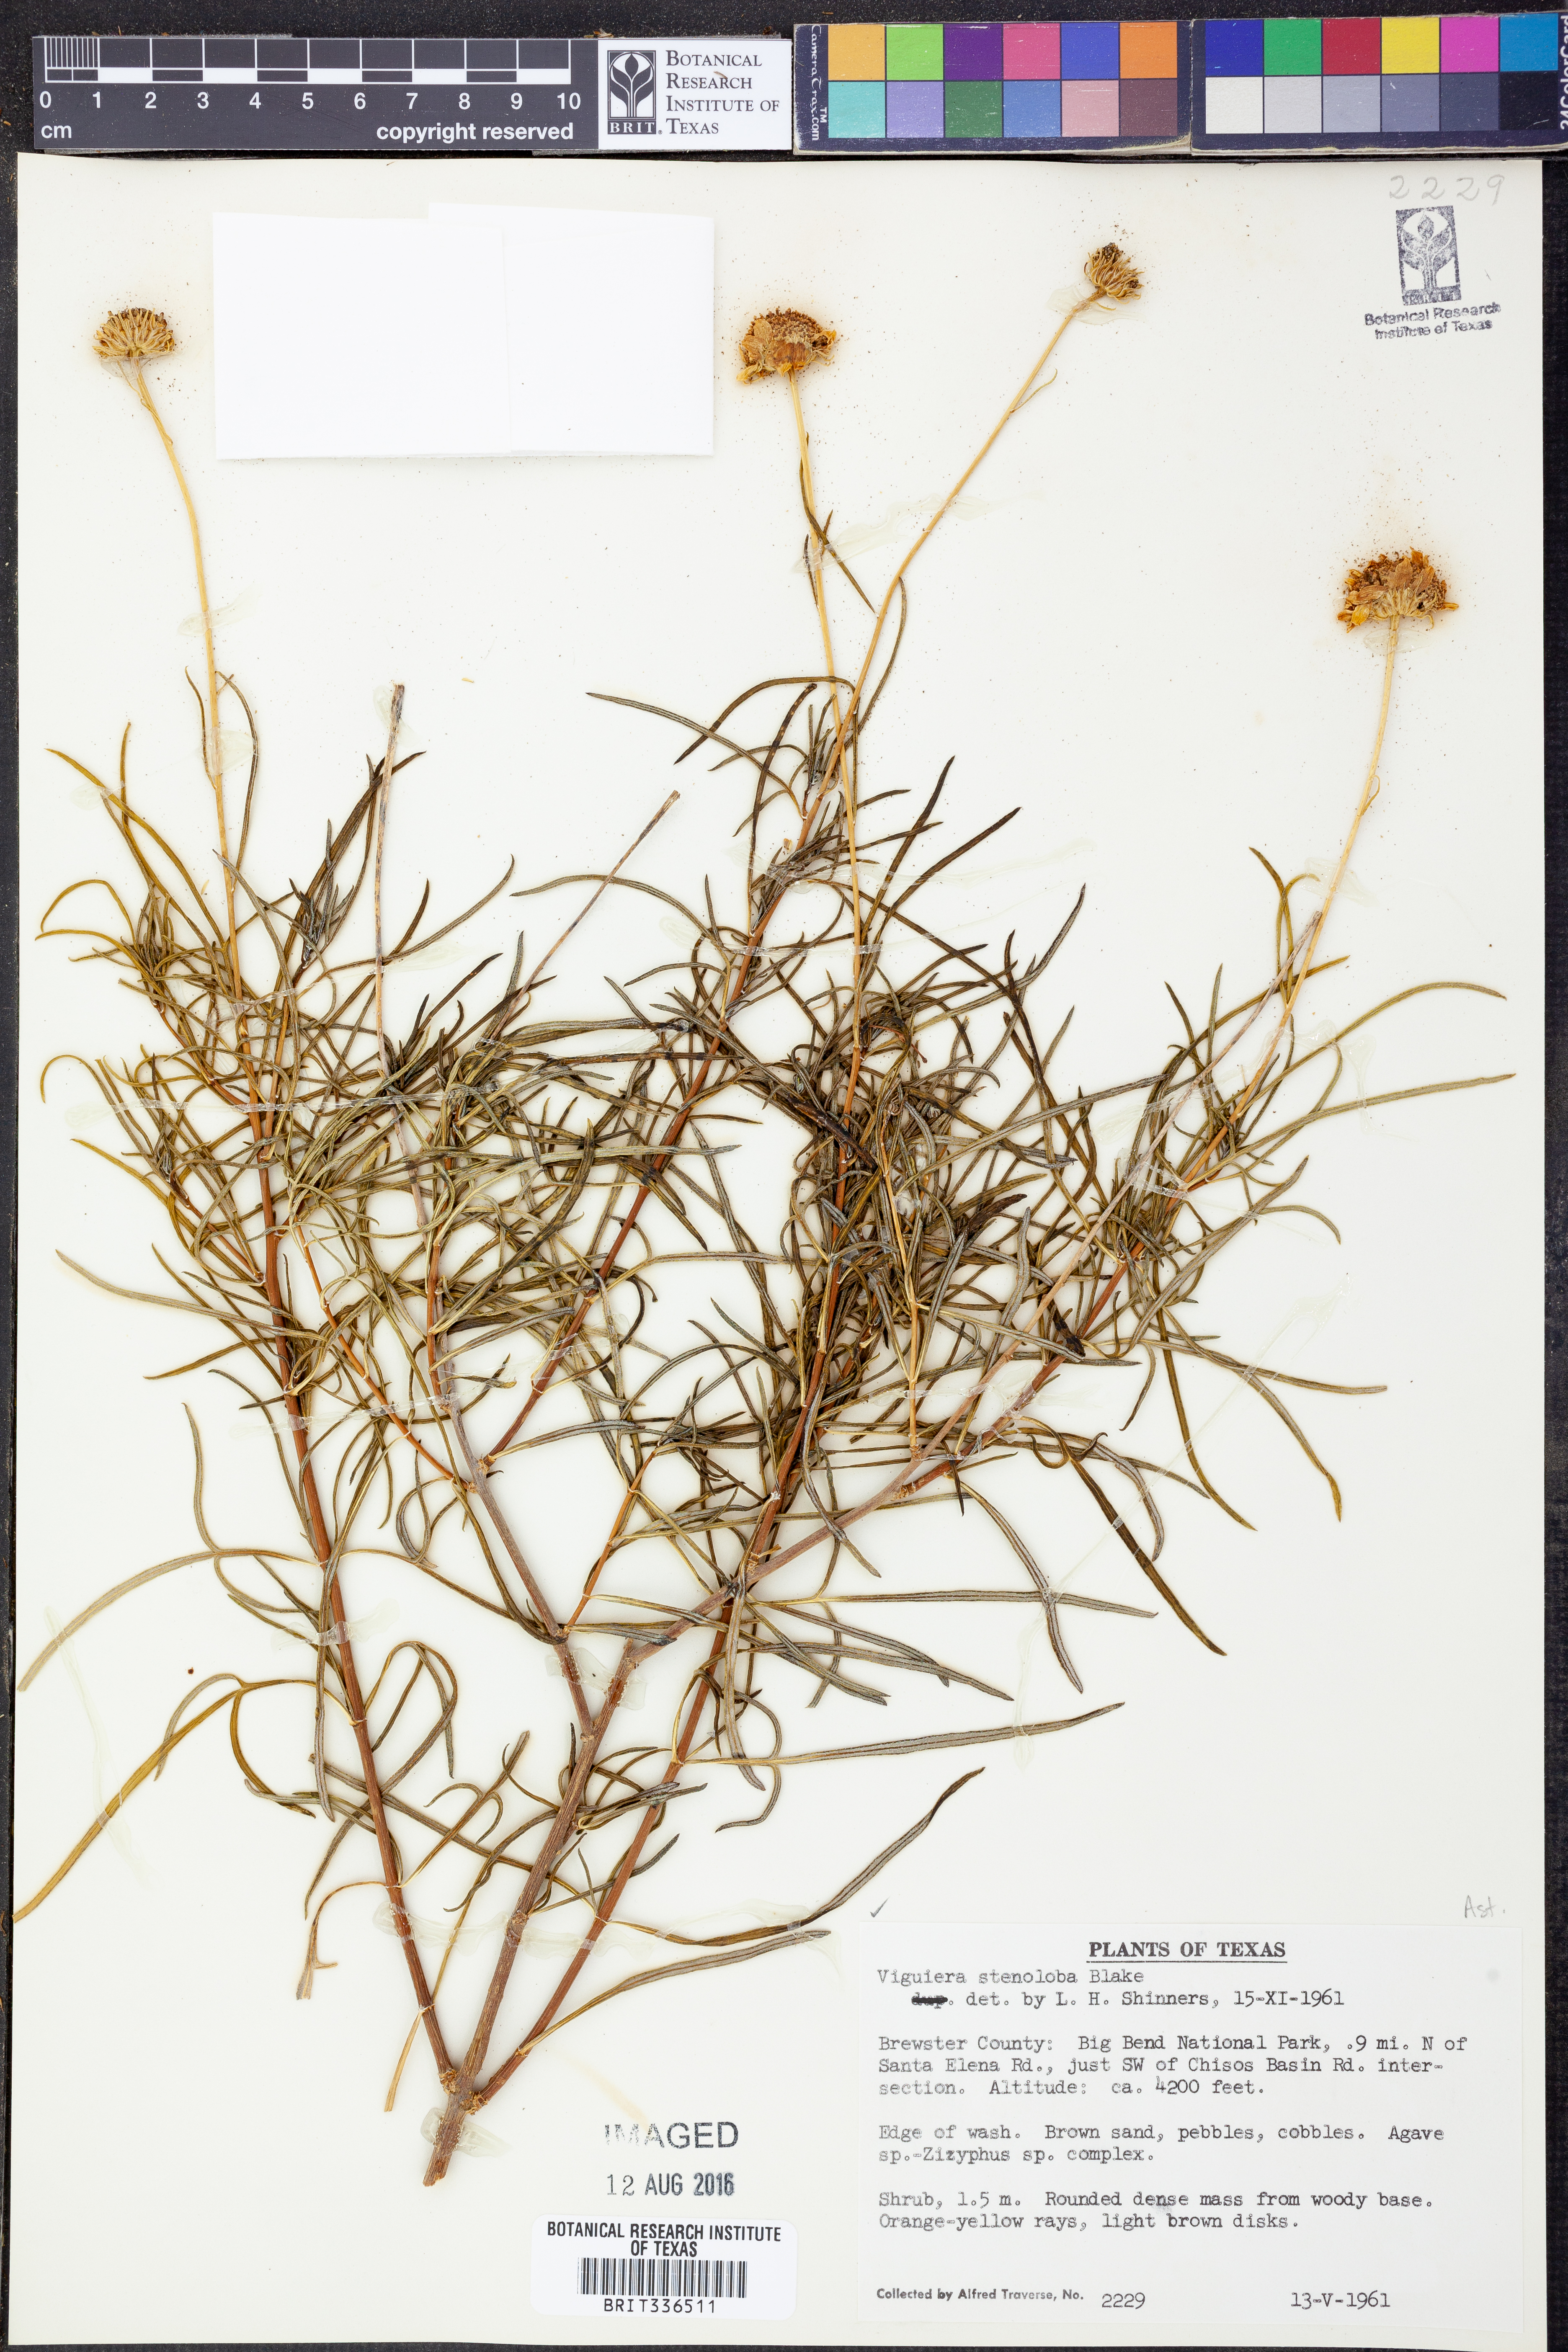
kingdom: Plantae
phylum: Tracheophyta
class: Magnoliopsida
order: Asterales
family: Asteraceae
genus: Sidneya
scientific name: Sidneya tenuifolia
